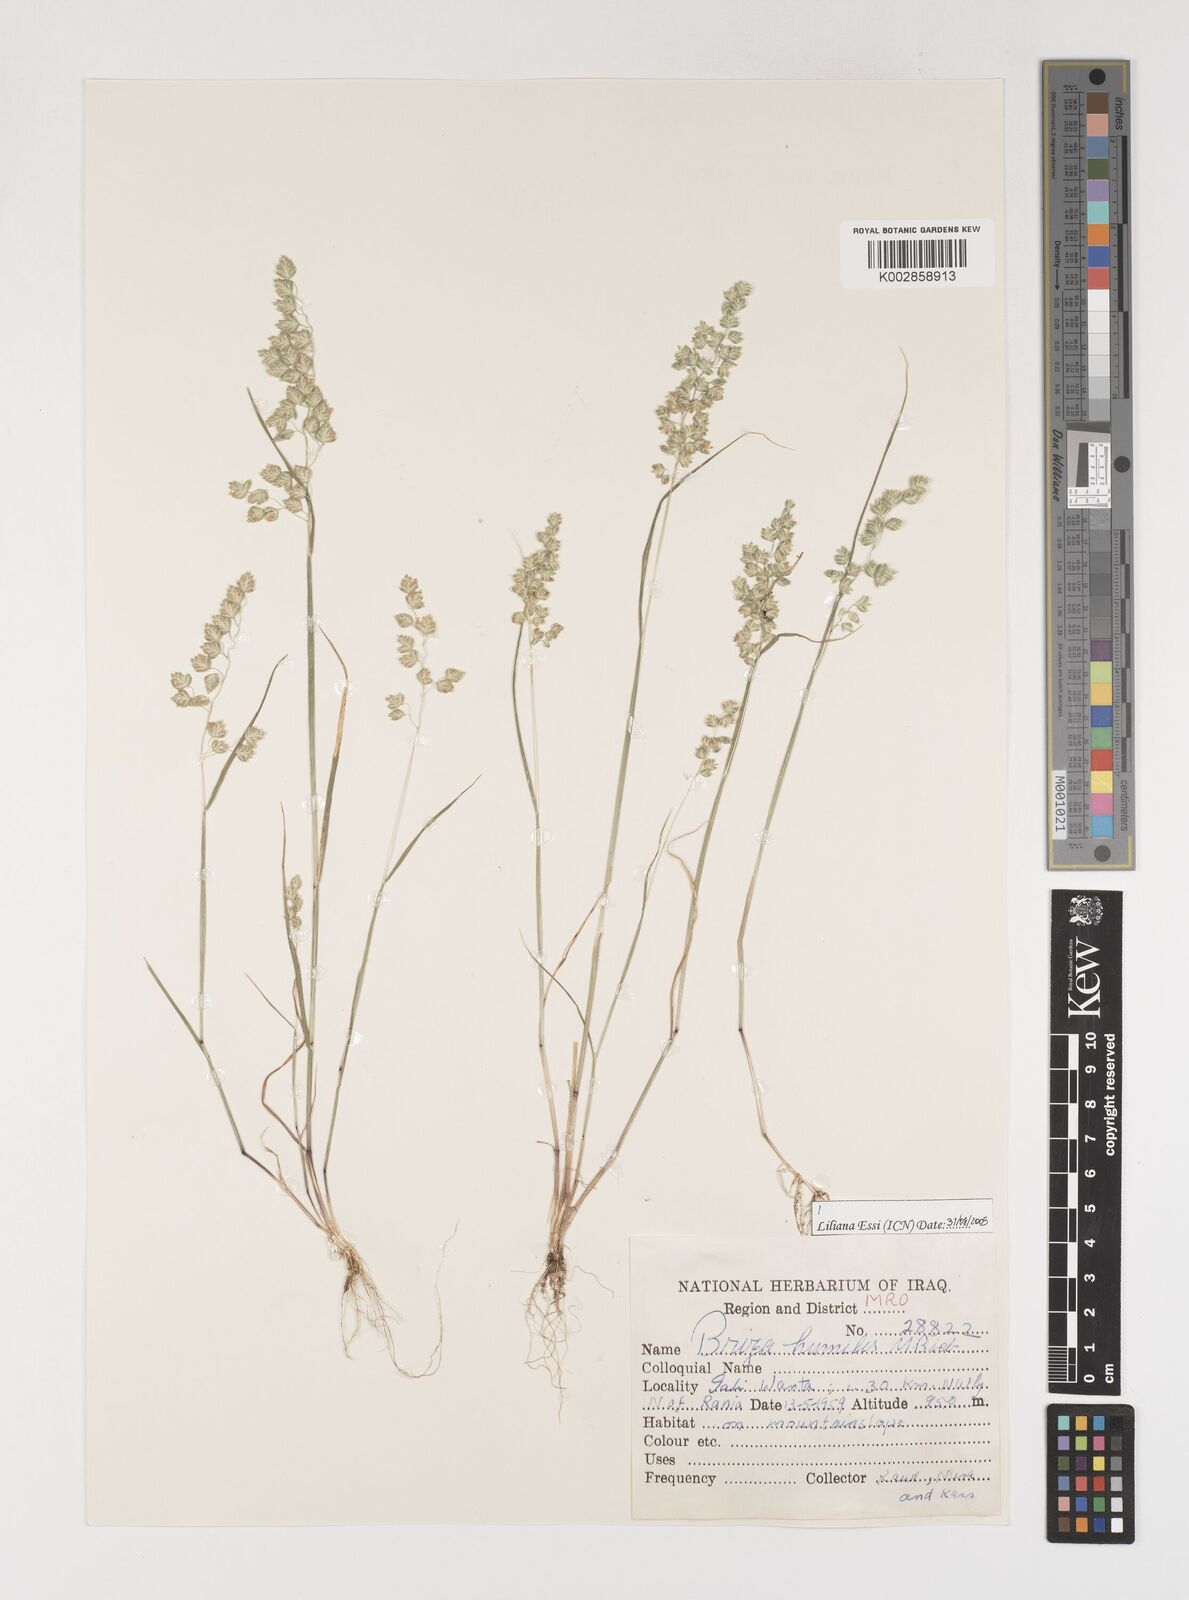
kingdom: Plantae
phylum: Tracheophyta
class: Liliopsida
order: Poales
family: Poaceae
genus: Briza
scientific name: Briza humilis
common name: Spiked quaking grass
